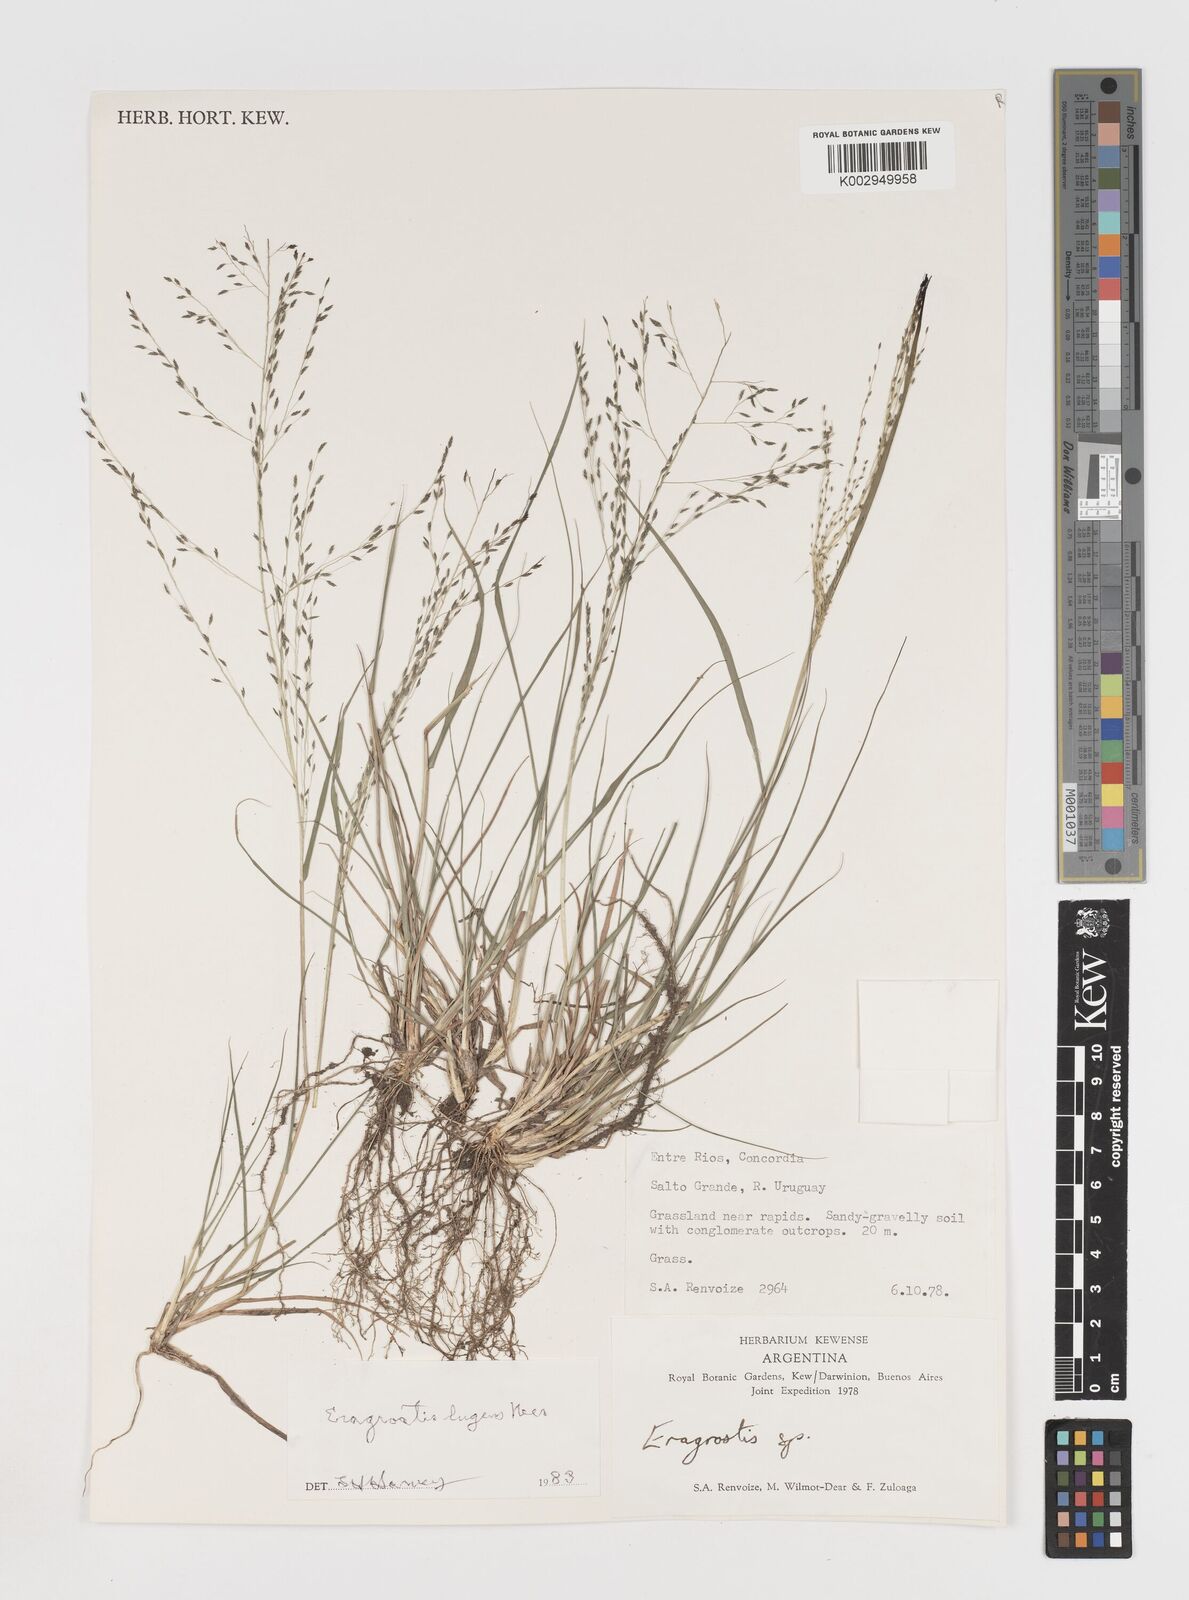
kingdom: Plantae
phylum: Tracheophyta
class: Liliopsida
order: Poales
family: Poaceae
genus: Eragrostis
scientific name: Eragrostis
